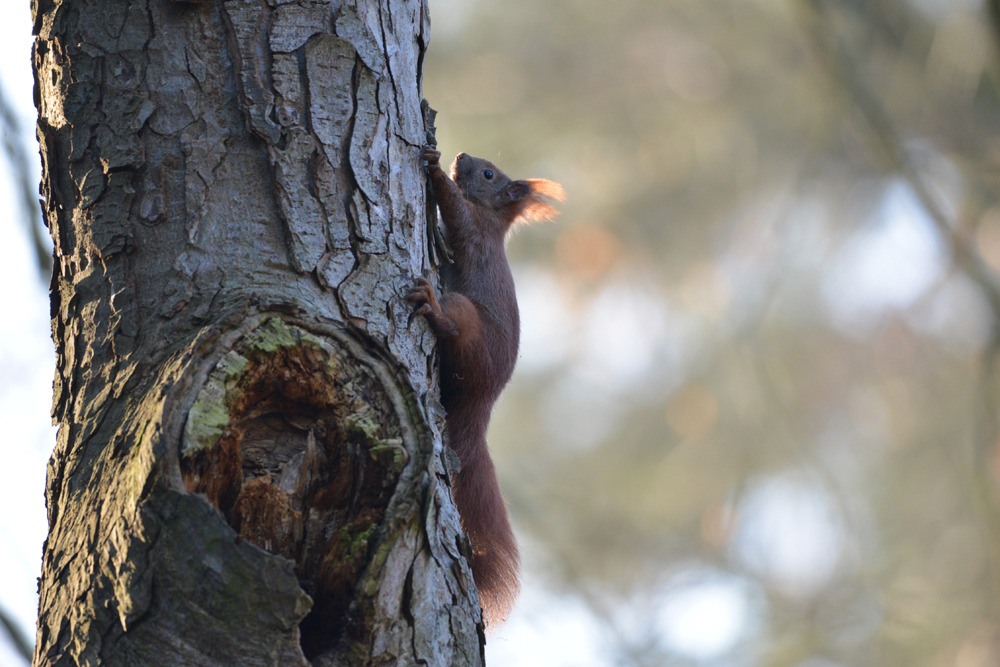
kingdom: Animalia
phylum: Chordata
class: Mammalia
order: Rodentia
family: Sciuridae
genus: Sciurus
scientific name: Sciurus vulgaris
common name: Eurasian red squirrel
